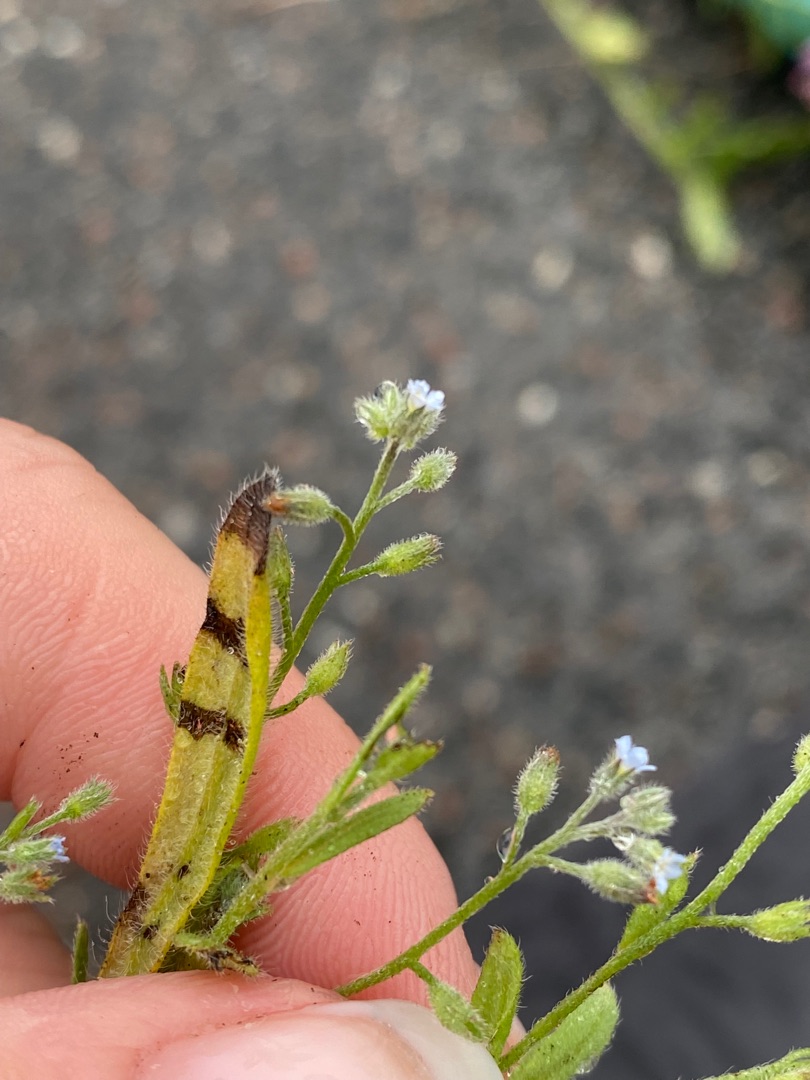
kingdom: Plantae
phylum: Tracheophyta
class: Magnoliopsida
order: Boraginales
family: Boraginaceae
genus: Myosotis
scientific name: Myosotis arvensis
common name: Mark-forglemmigej
